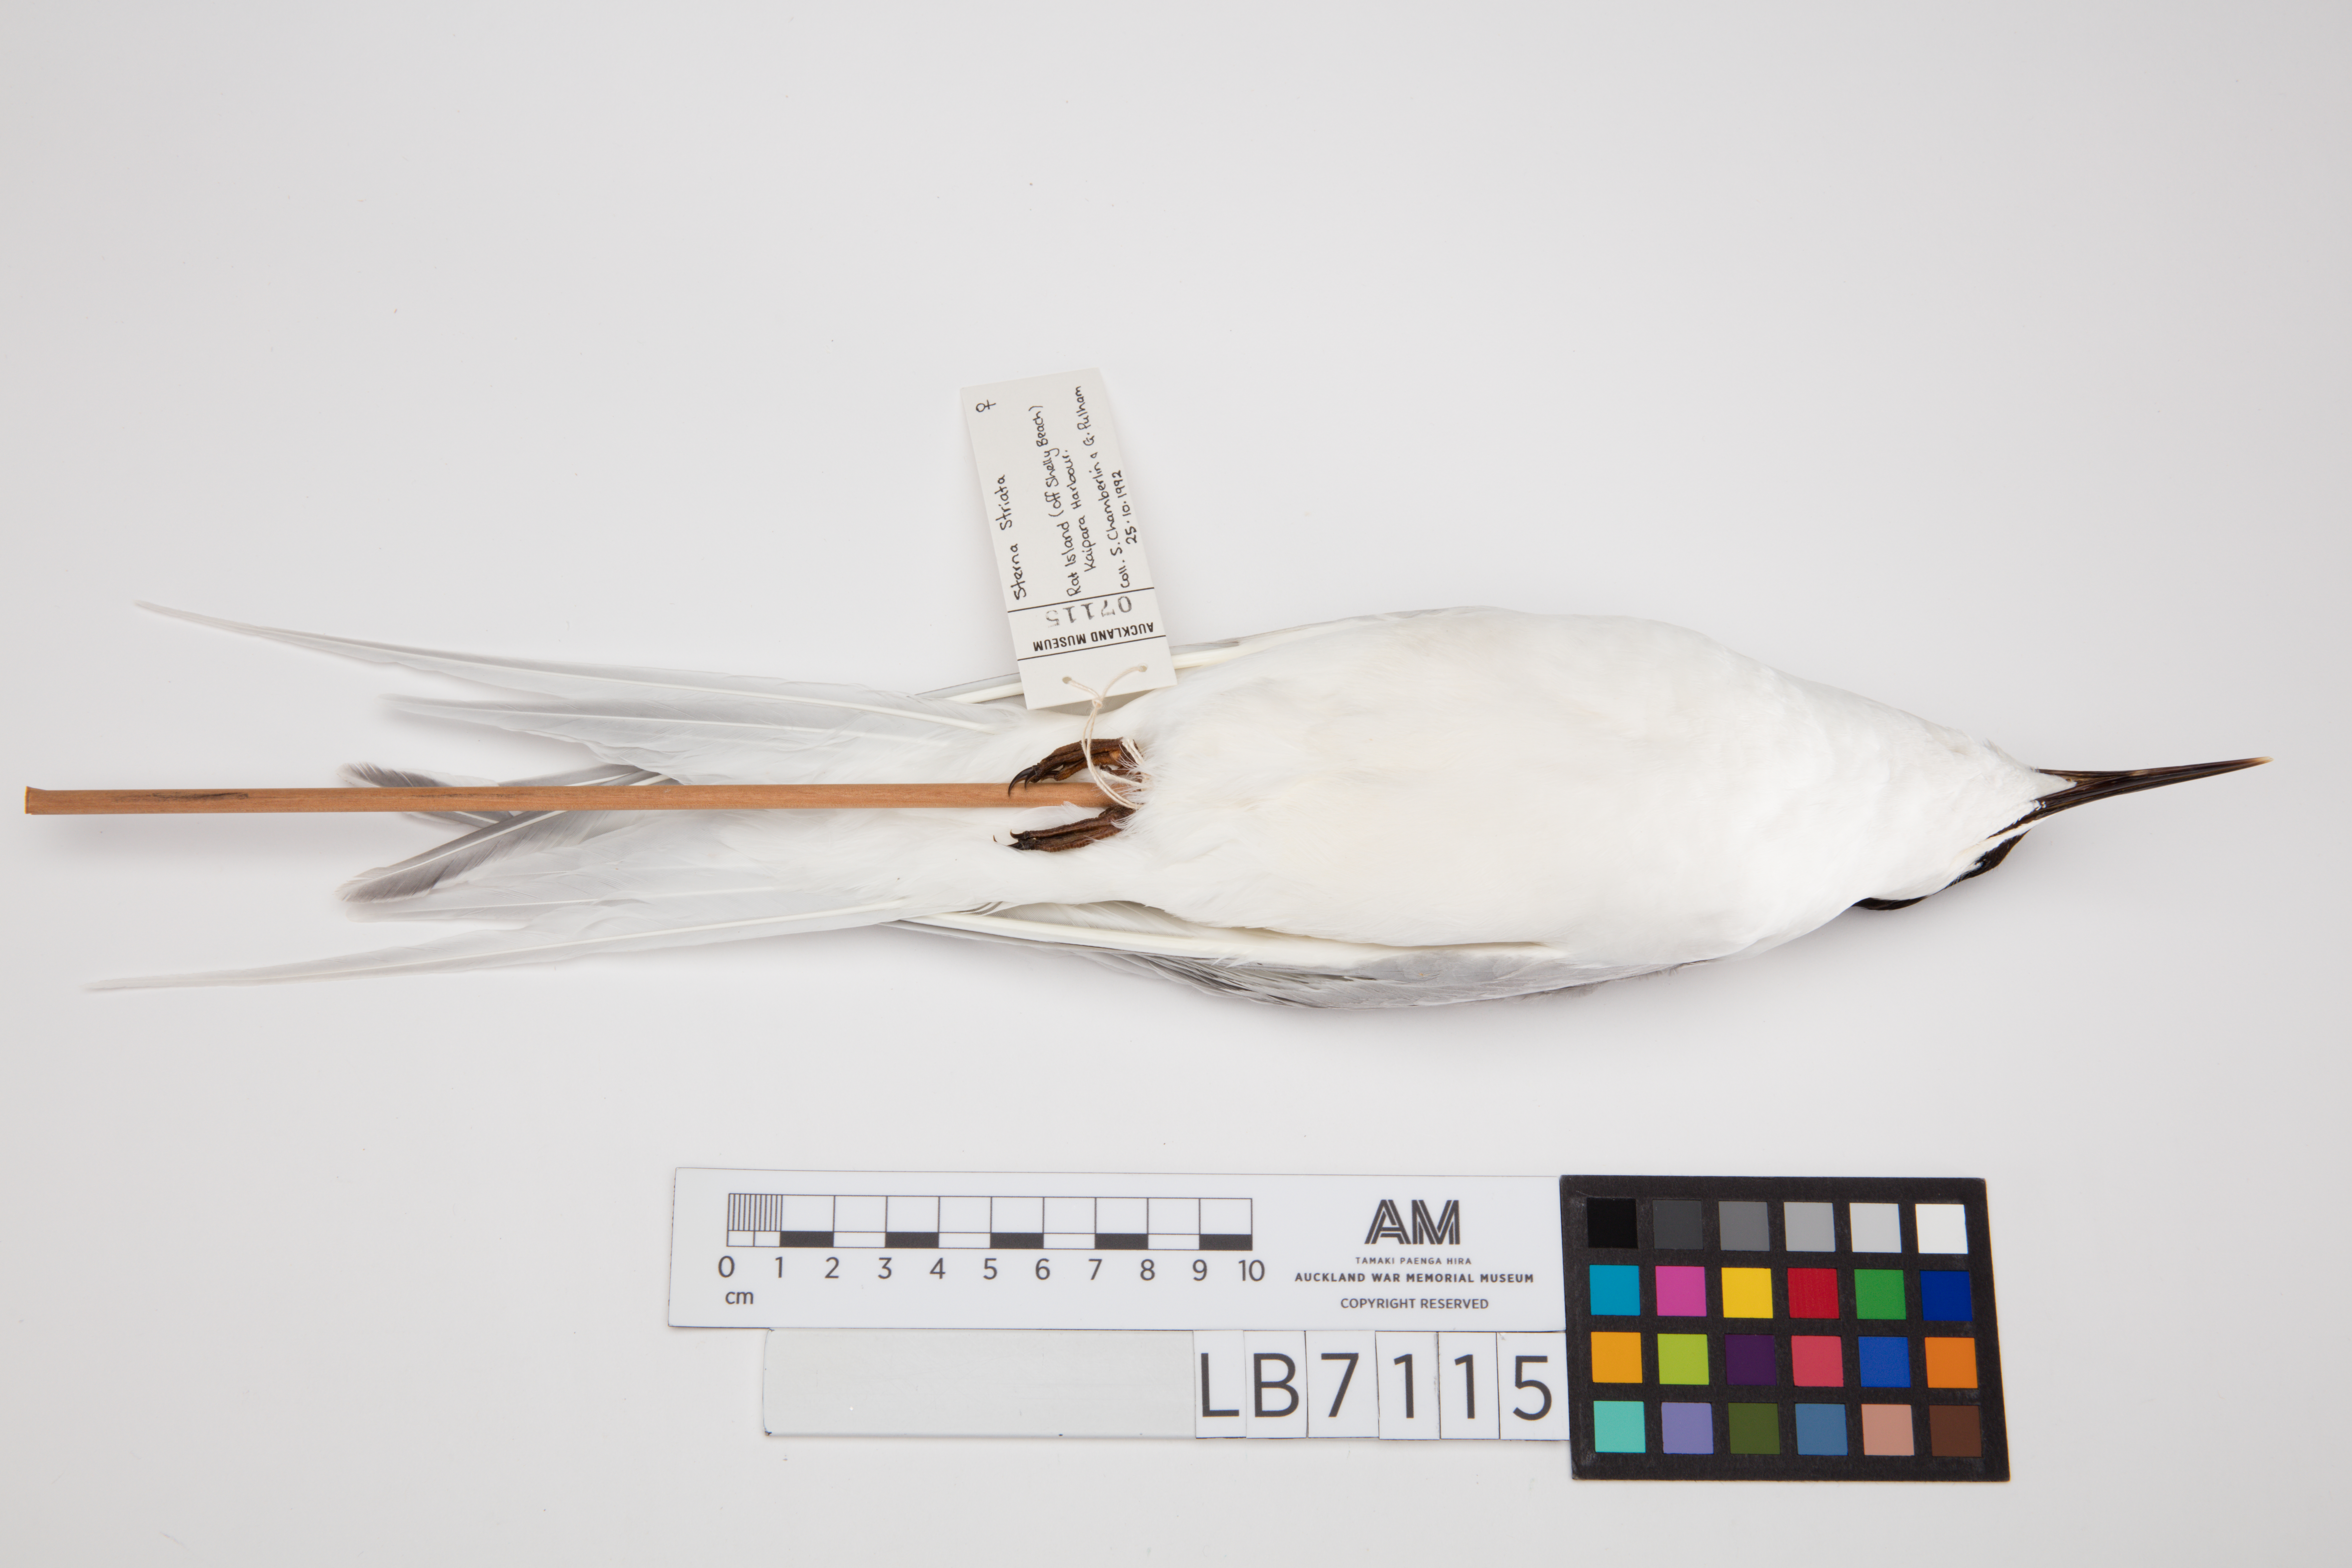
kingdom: Animalia
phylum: Chordata
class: Aves
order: Charadriiformes
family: Laridae
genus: Sterna
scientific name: Sterna striata
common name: White-fronted tern
